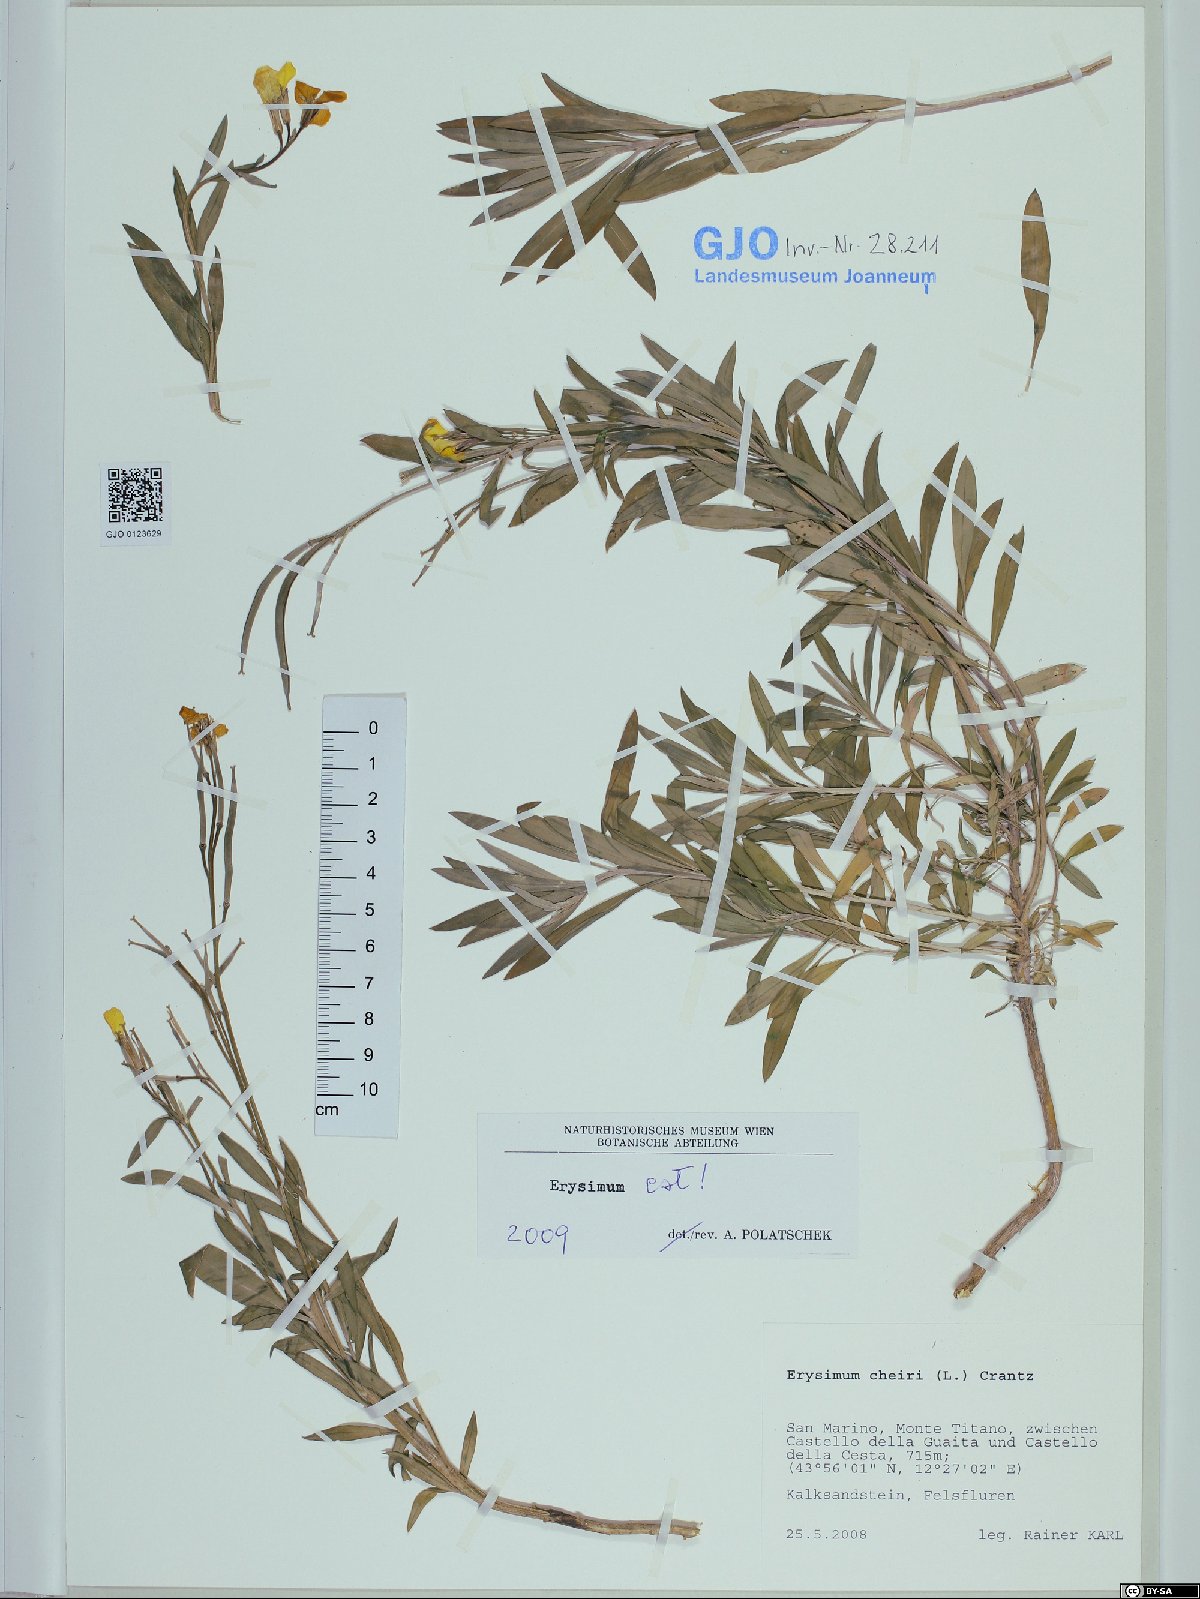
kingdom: Plantae
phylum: Tracheophyta
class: Magnoliopsida
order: Brassicales
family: Brassicaceae
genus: Erysimum
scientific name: Erysimum cheiri
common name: Wallflower
